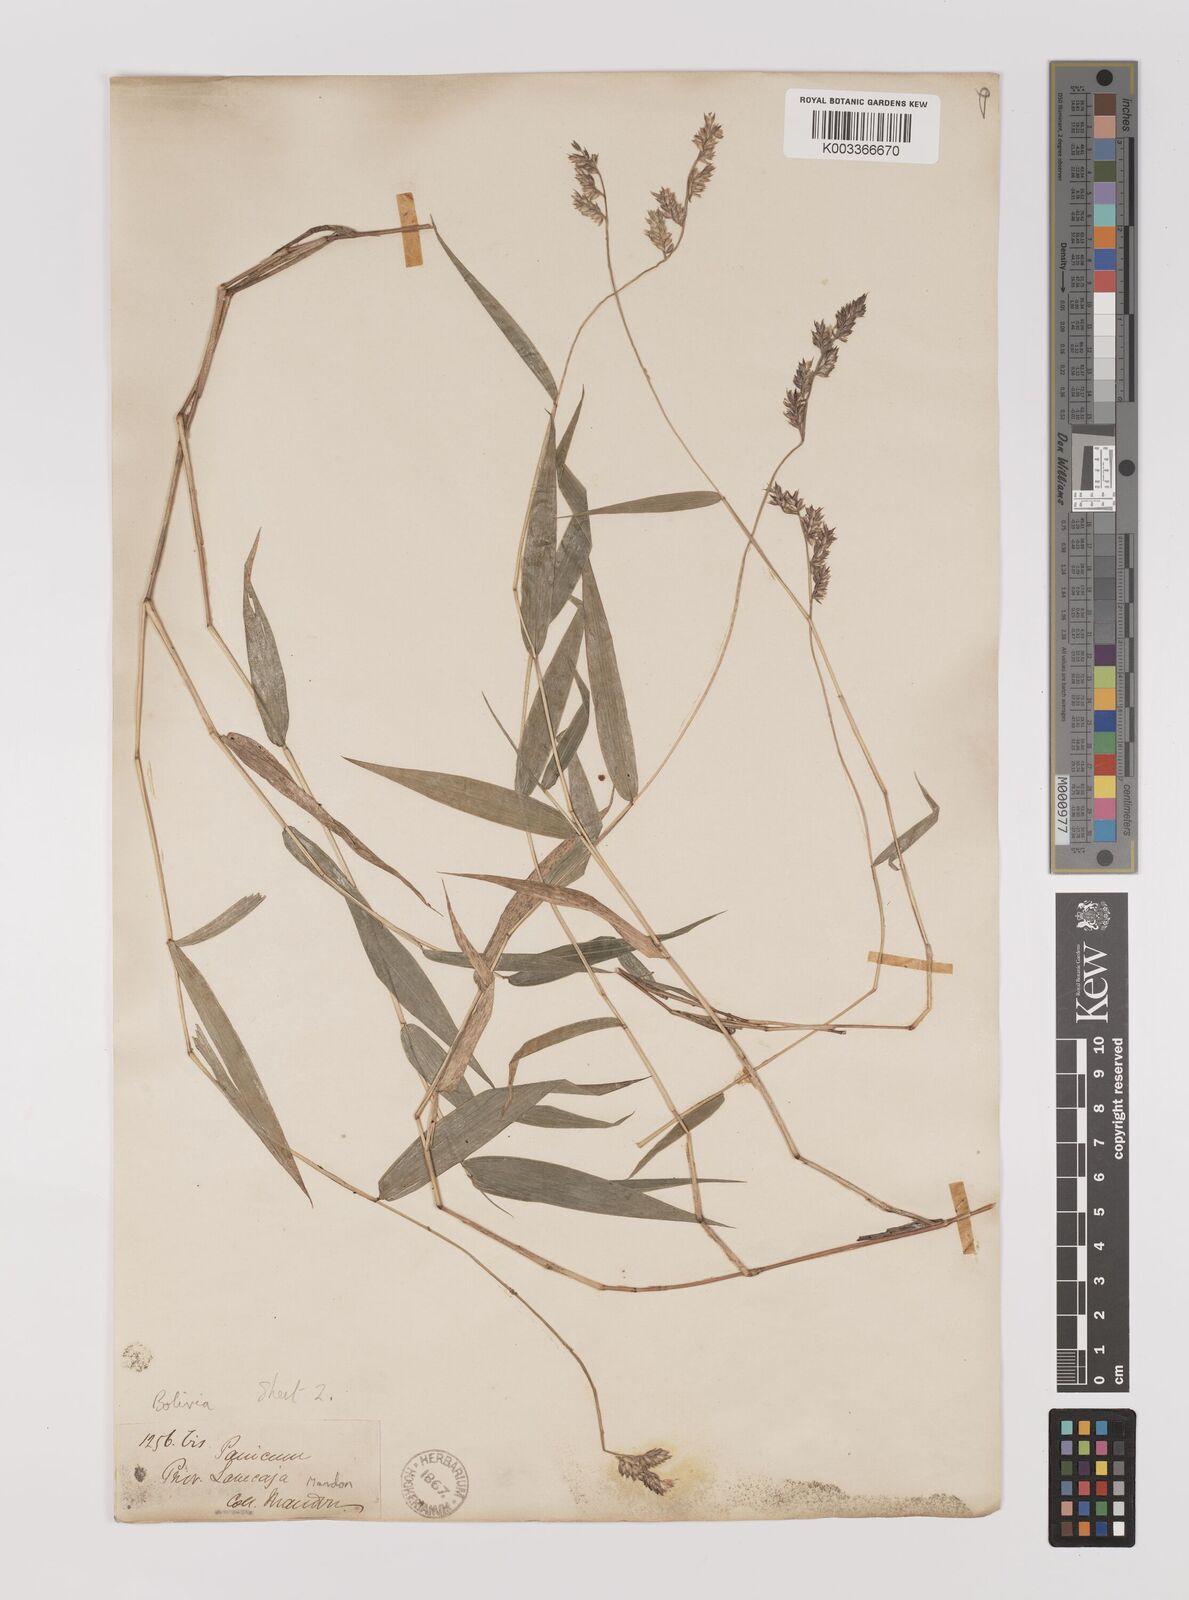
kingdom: Plantae
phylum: Tracheophyta
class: Liliopsida
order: Poales
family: Poaceae
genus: Oedochloa
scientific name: Oedochloa minarum
